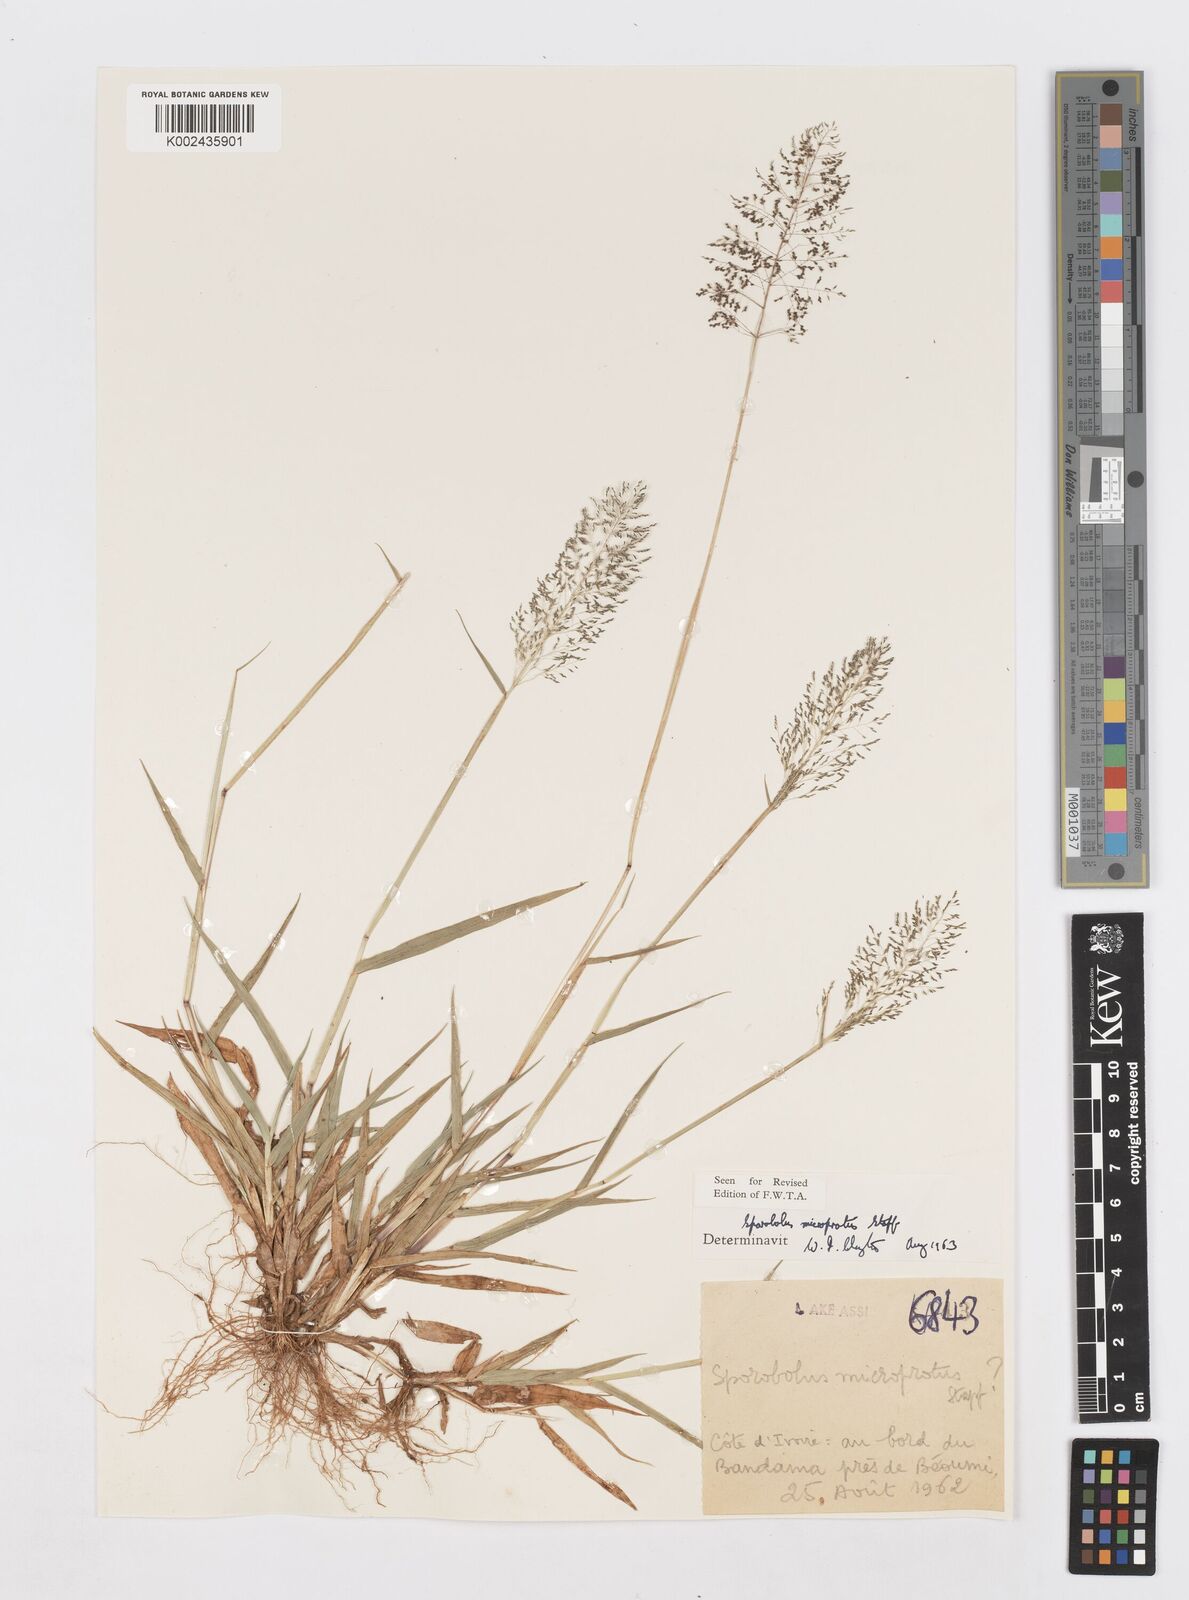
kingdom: Plantae
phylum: Tracheophyta
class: Liliopsida
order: Poales
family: Poaceae
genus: Sporobolus
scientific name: Sporobolus microprotus
